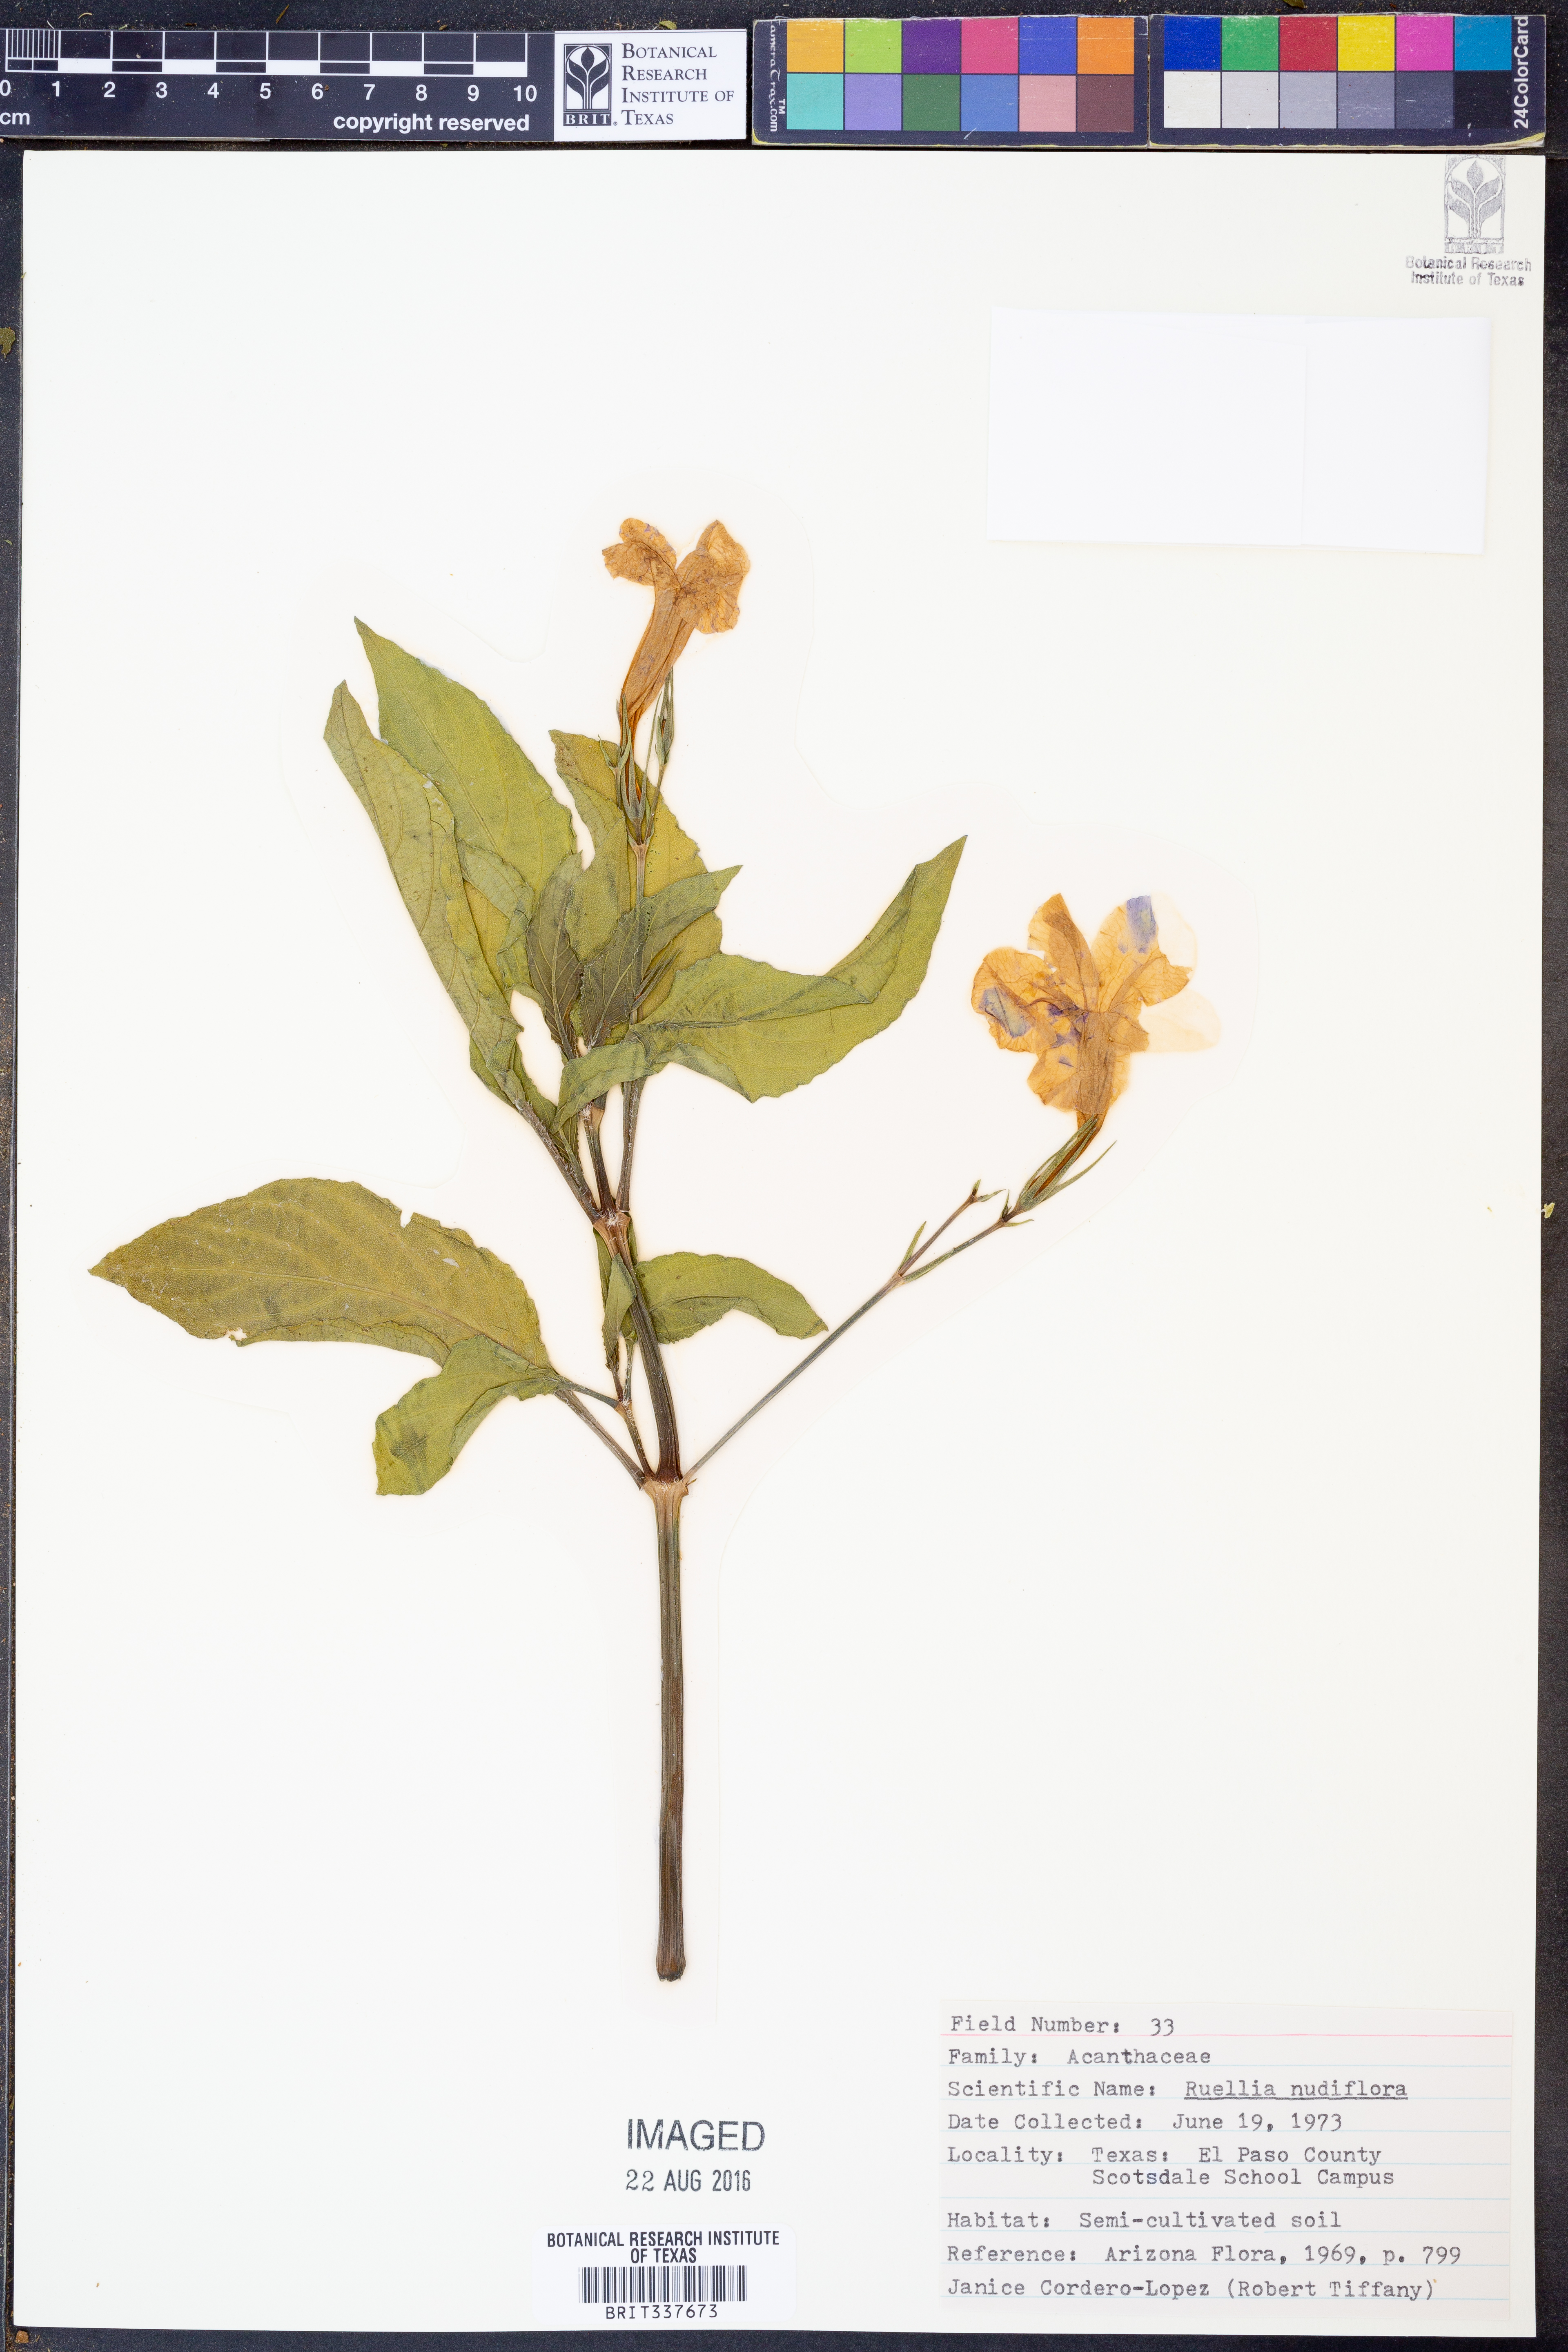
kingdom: Plantae
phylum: Tracheophyta
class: Magnoliopsida
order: Lamiales
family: Acanthaceae
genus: Ruellia
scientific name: Ruellia ciliatiflora
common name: Hairyflower wild petunia
